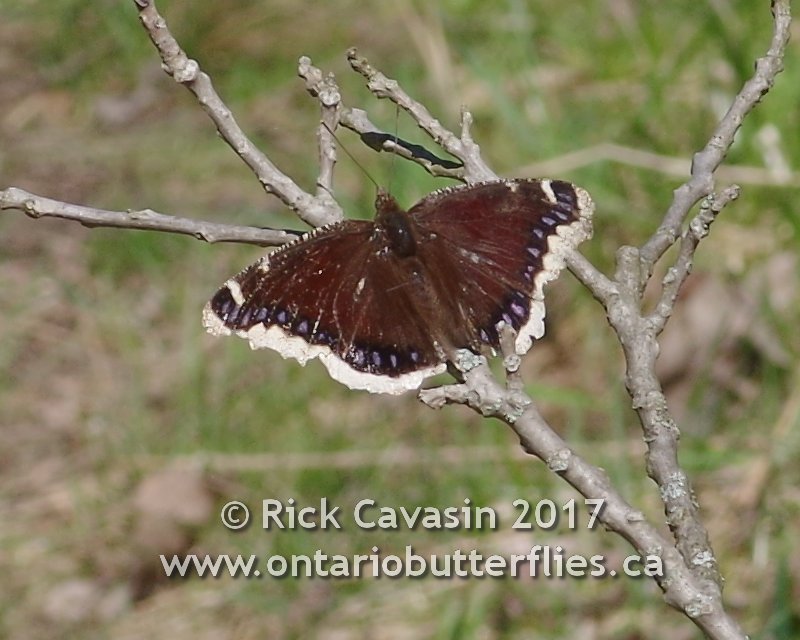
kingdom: Animalia
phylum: Arthropoda
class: Insecta
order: Lepidoptera
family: Nymphalidae
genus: Nymphalis
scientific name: Nymphalis antiopa
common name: Mourning Cloak
